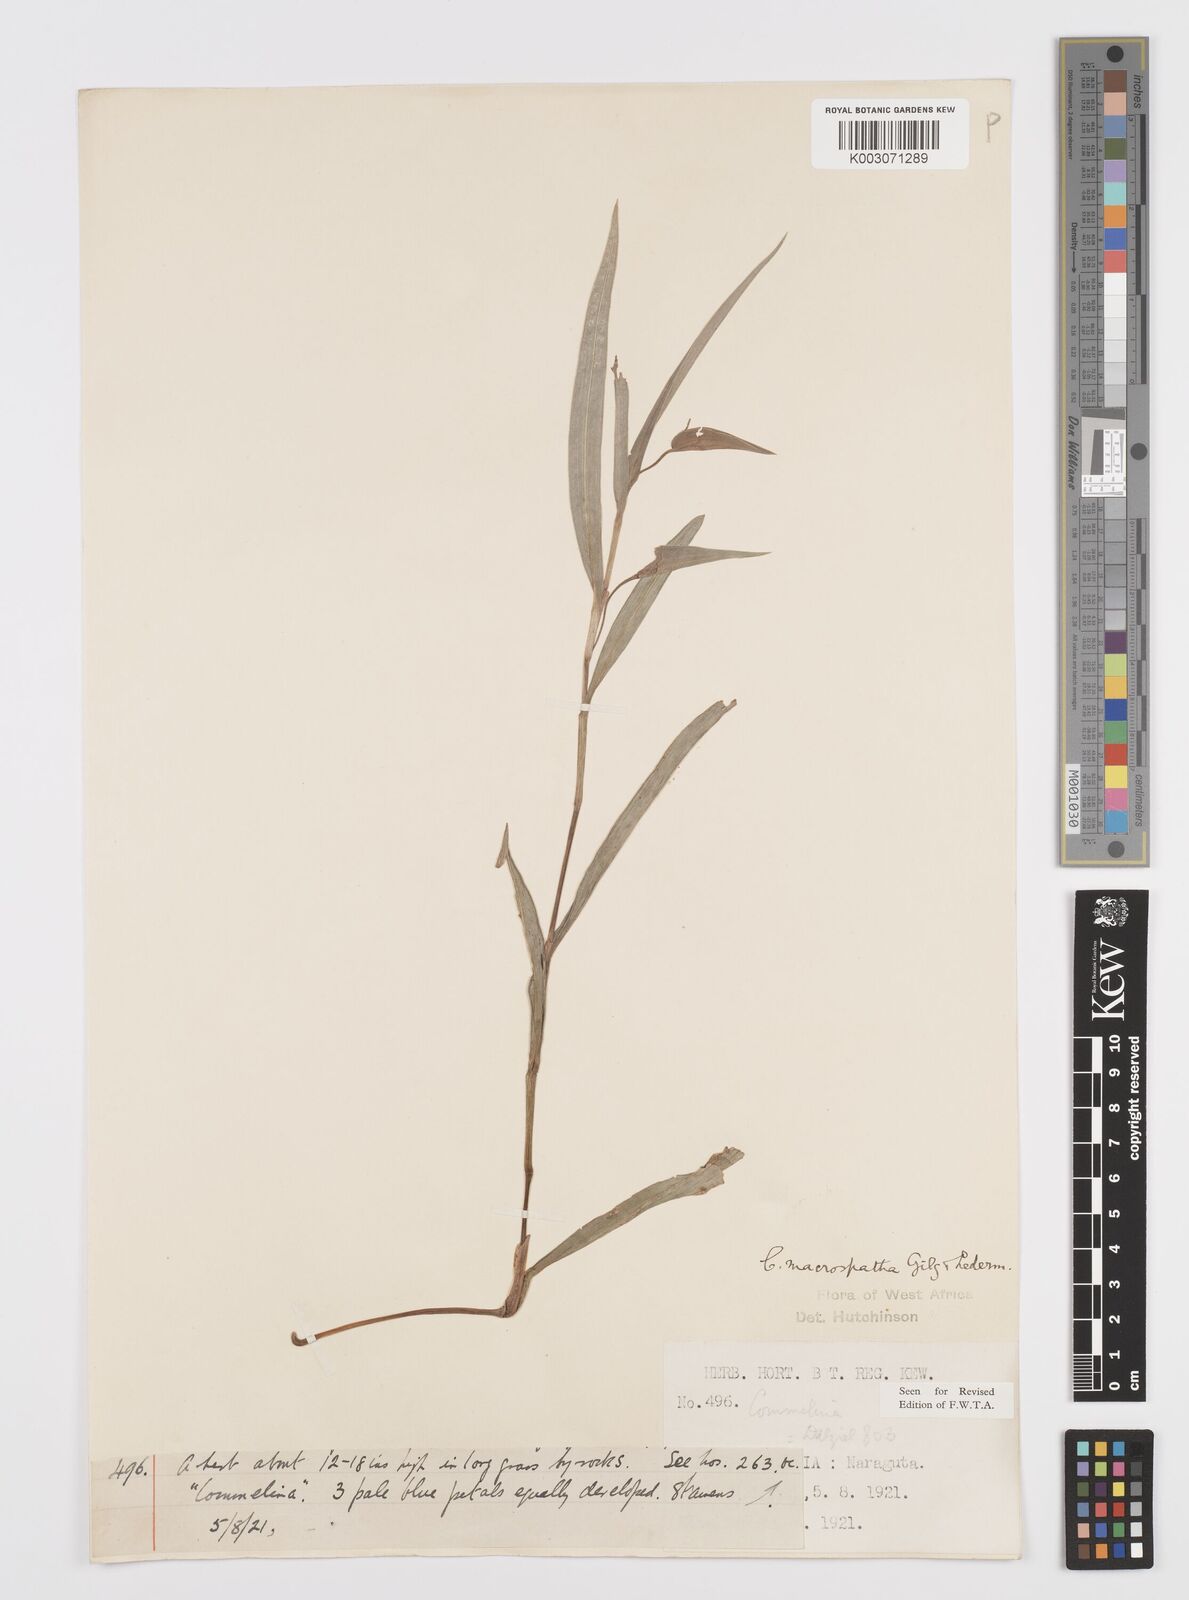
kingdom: Plantae
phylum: Tracheophyta
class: Liliopsida
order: Commelinales
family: Commelinaceae
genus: Commelina
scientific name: Commelina macrospatha
